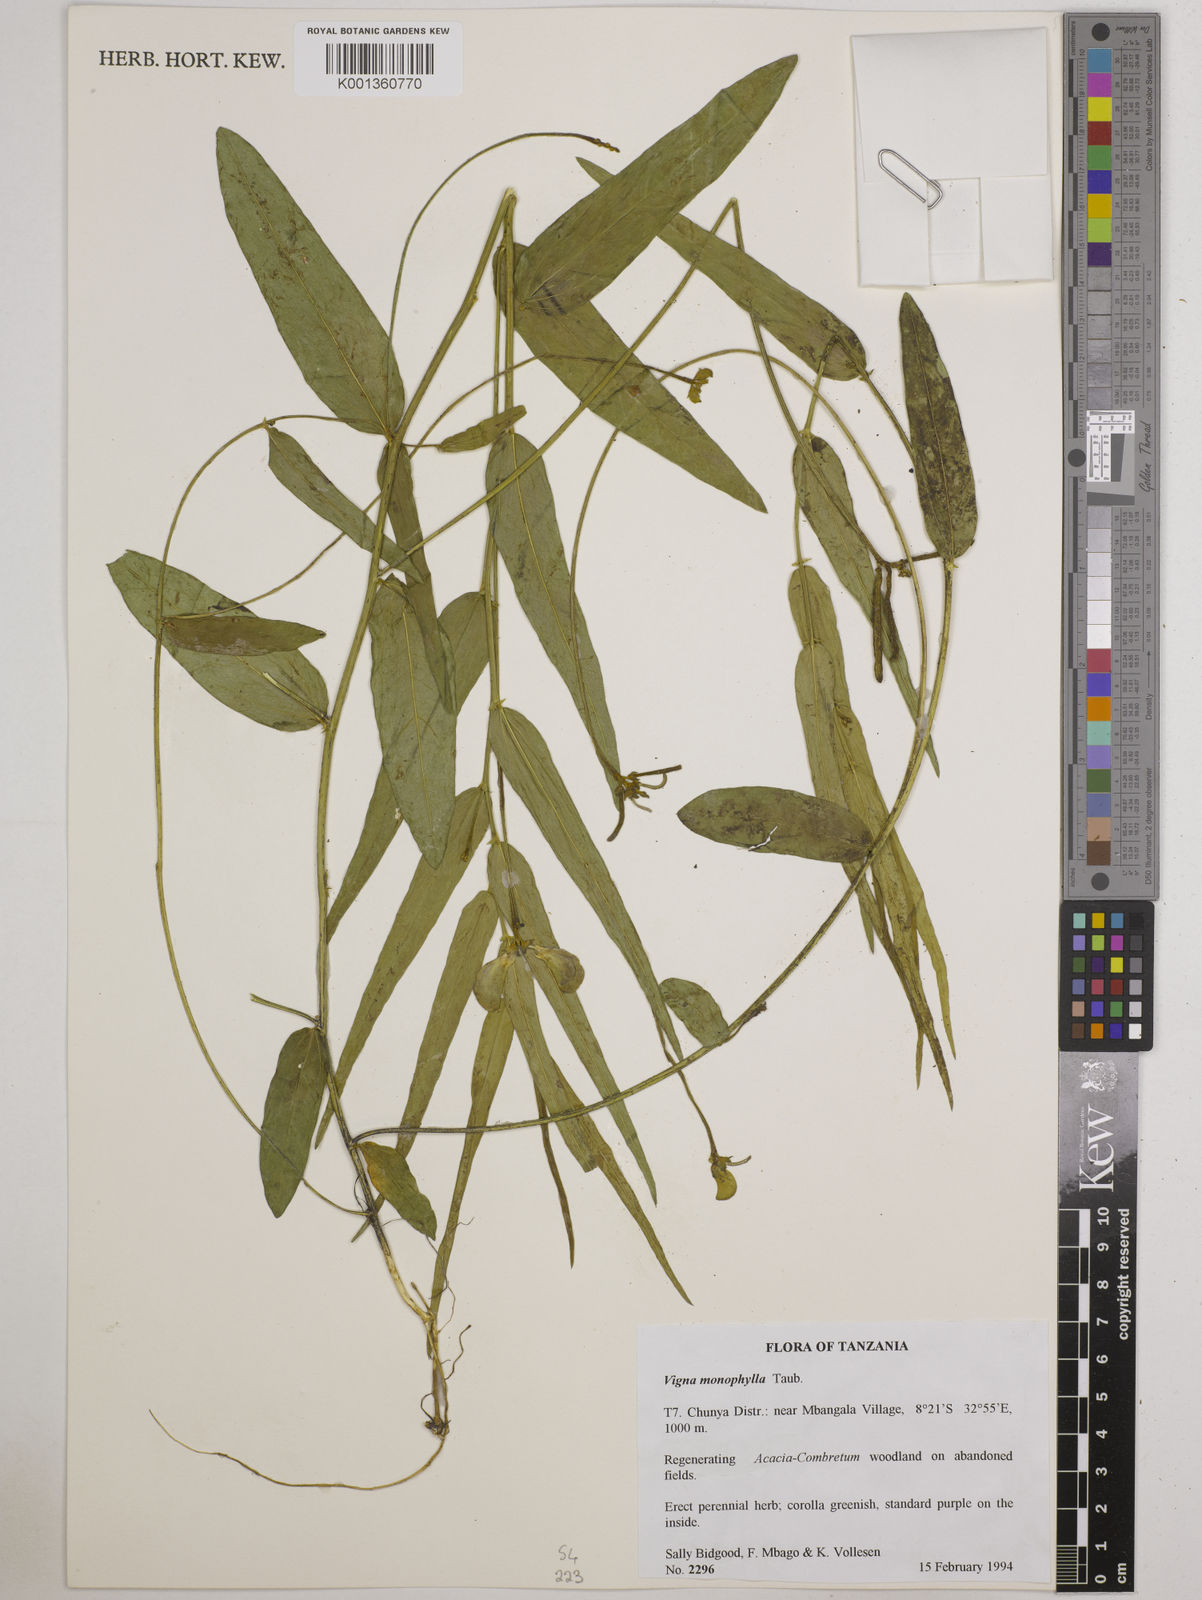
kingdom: Plantae
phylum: Tracheophyta
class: Magnoliopsida
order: Fabales
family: Fabaceae
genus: Vigna
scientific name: Vigna monophylla
